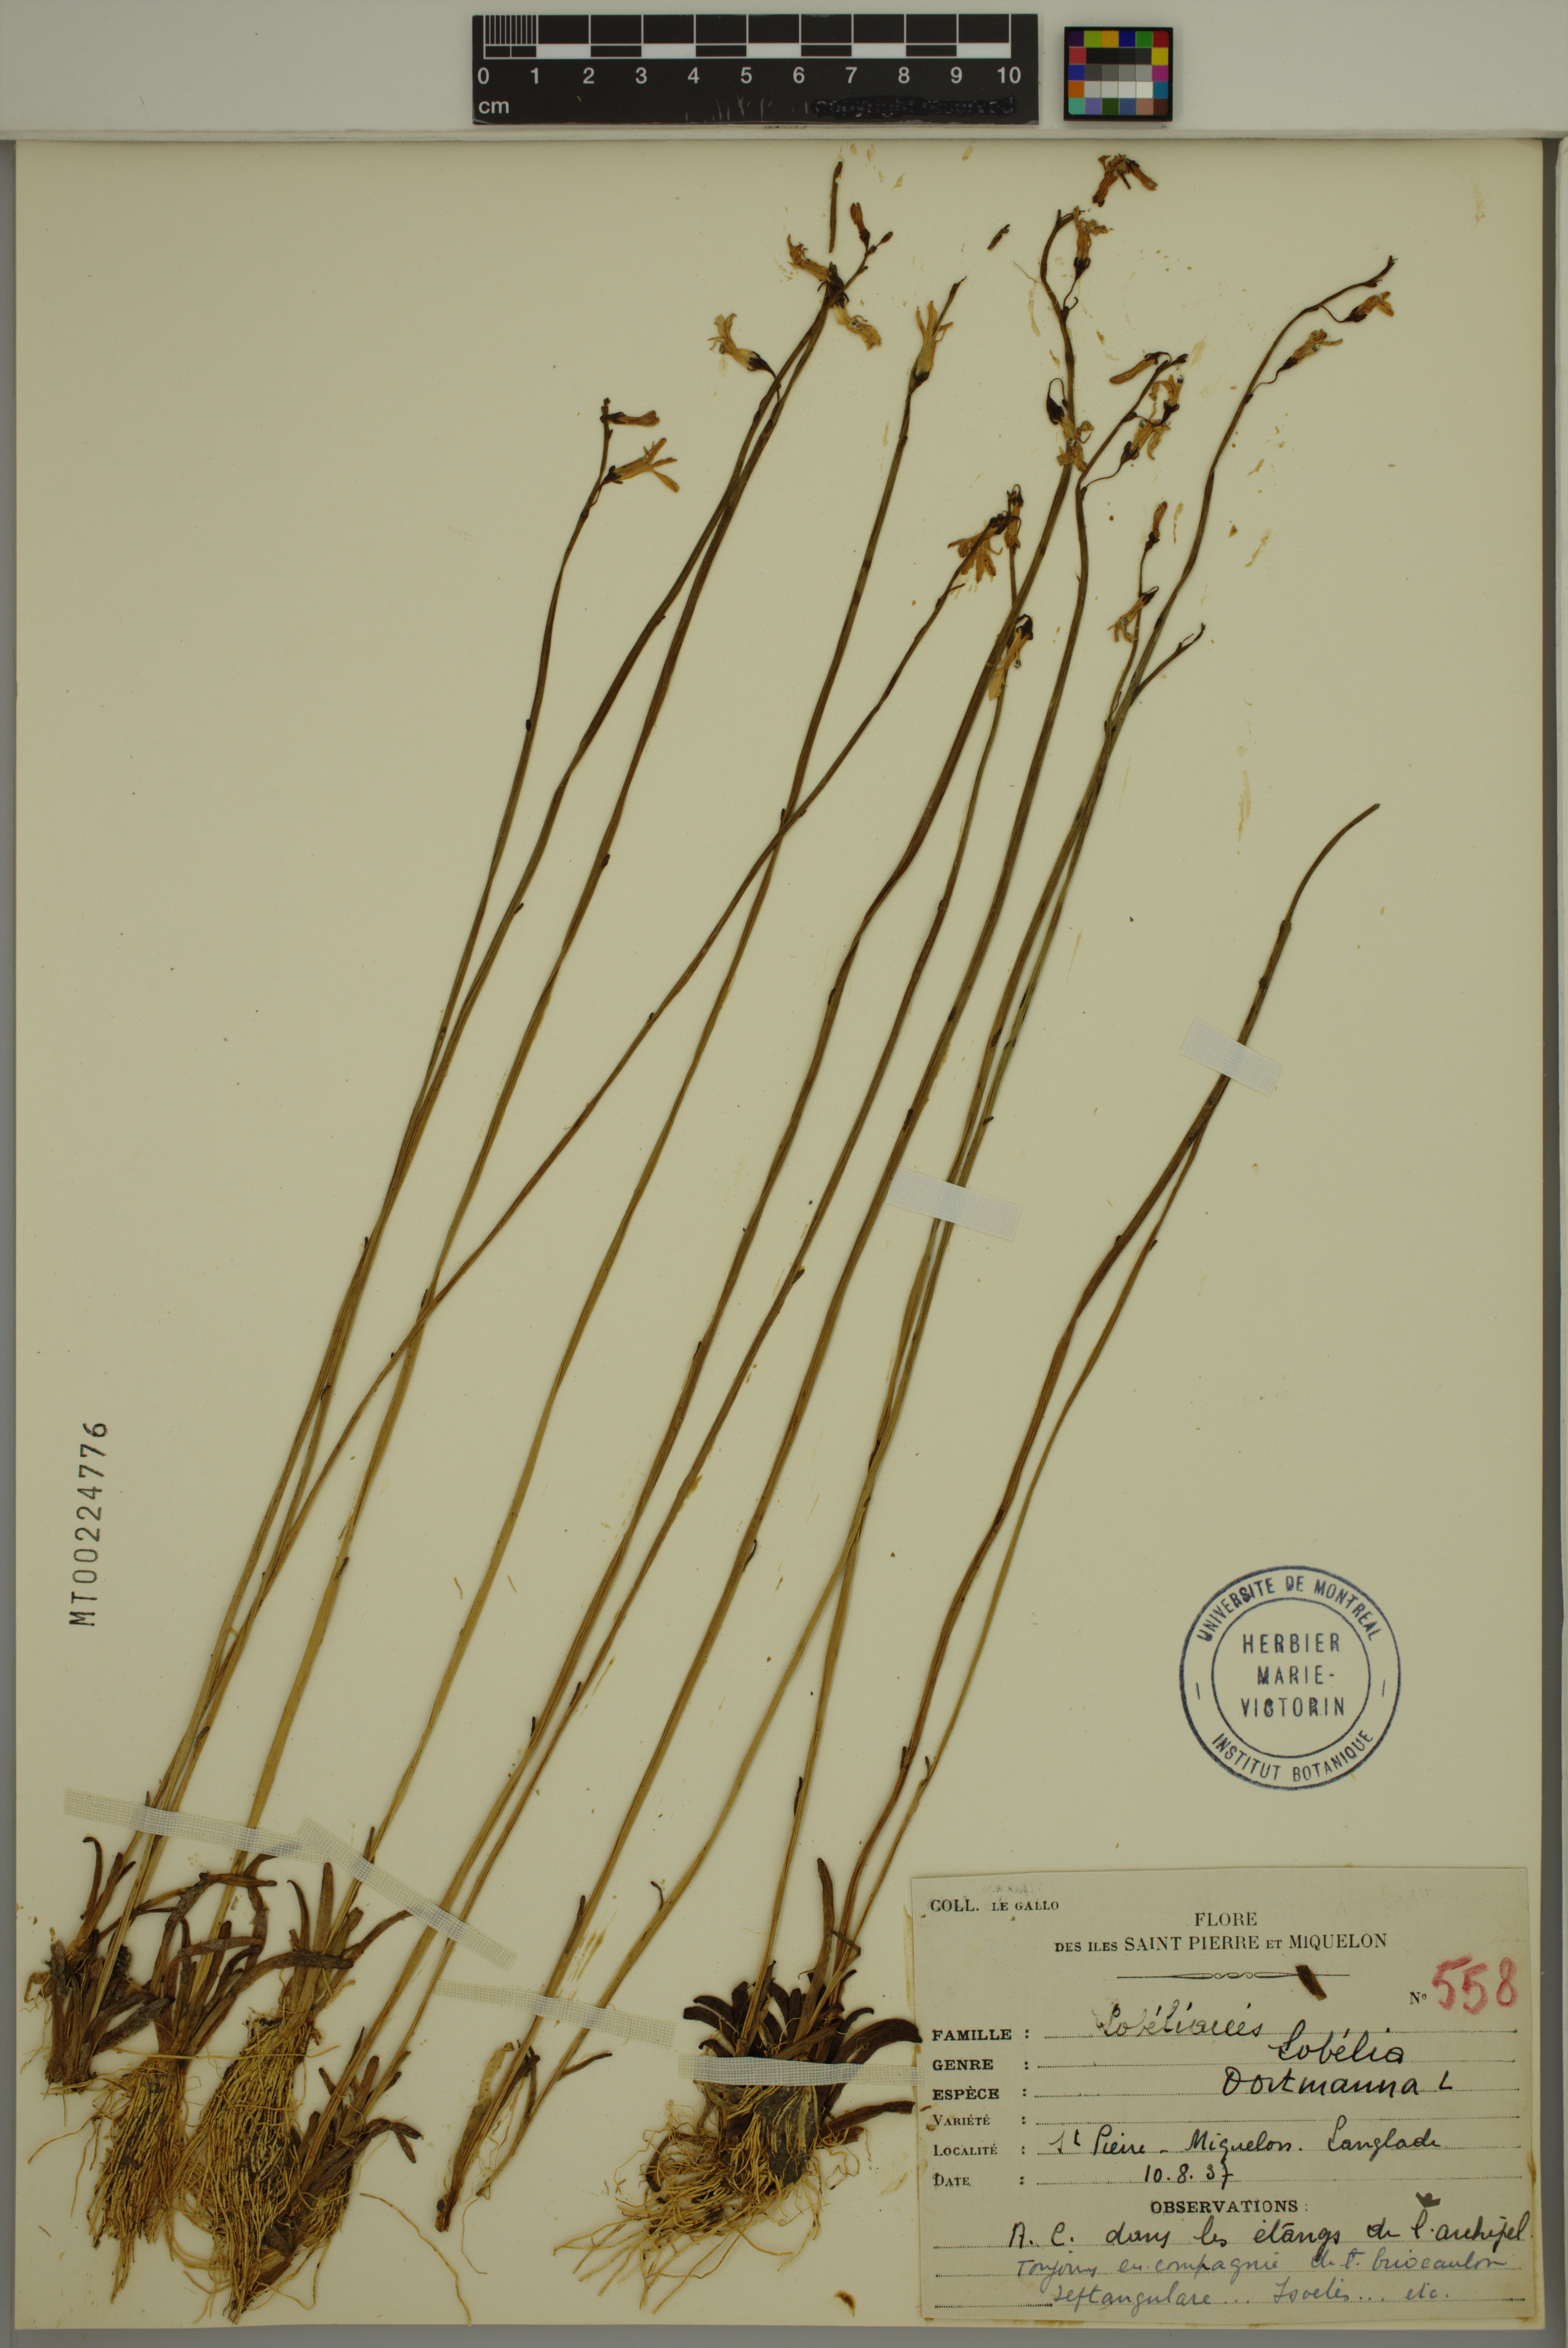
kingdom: Plantae
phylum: Tracheophyta
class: Magnoliopsida
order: Asterales
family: Campanulaceae
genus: Lobelia
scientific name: Lobelia dortmanna
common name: Water lobelia
